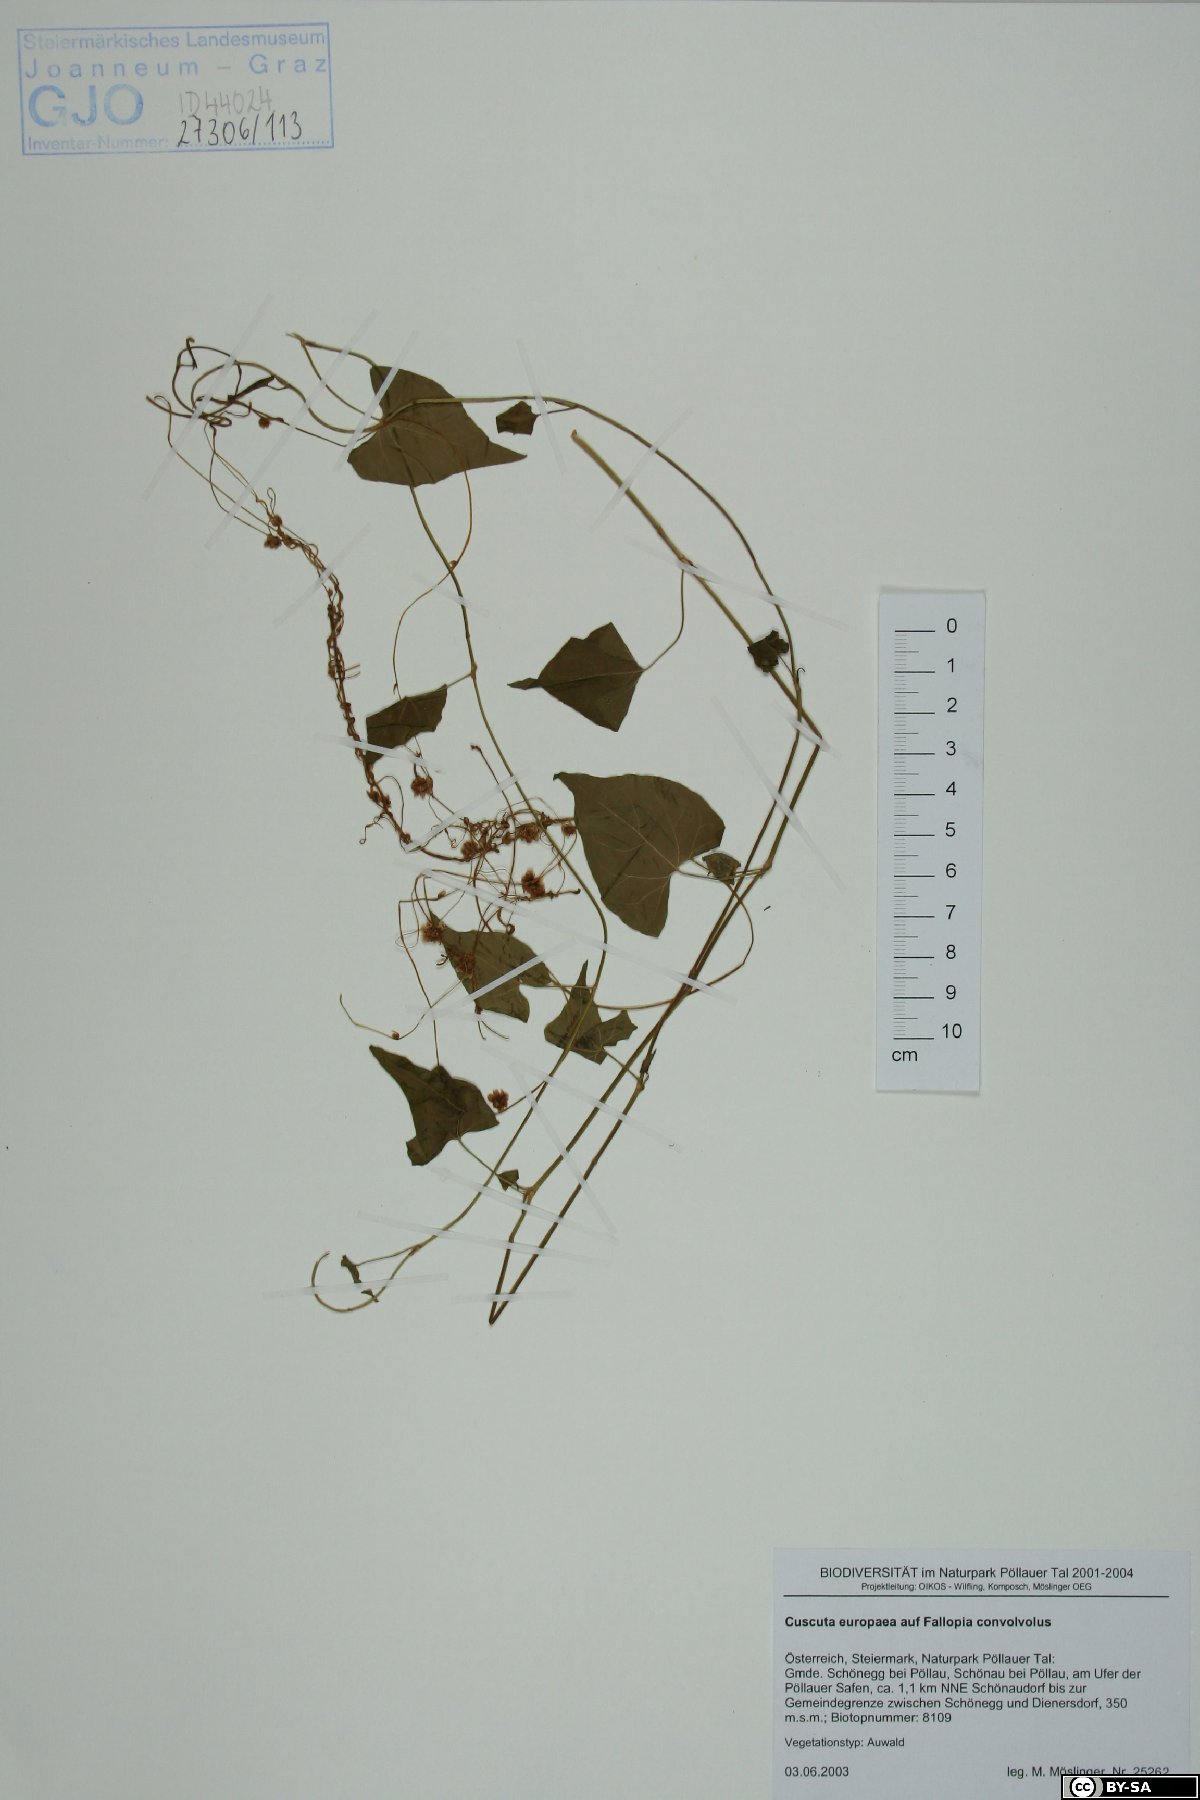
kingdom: Plantae
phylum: Tracheophyta
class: Magnoliopsida
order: Solanales
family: Convolvulaceae
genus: Cuscuta
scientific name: Cuscuta europaea
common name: Greater dodder
